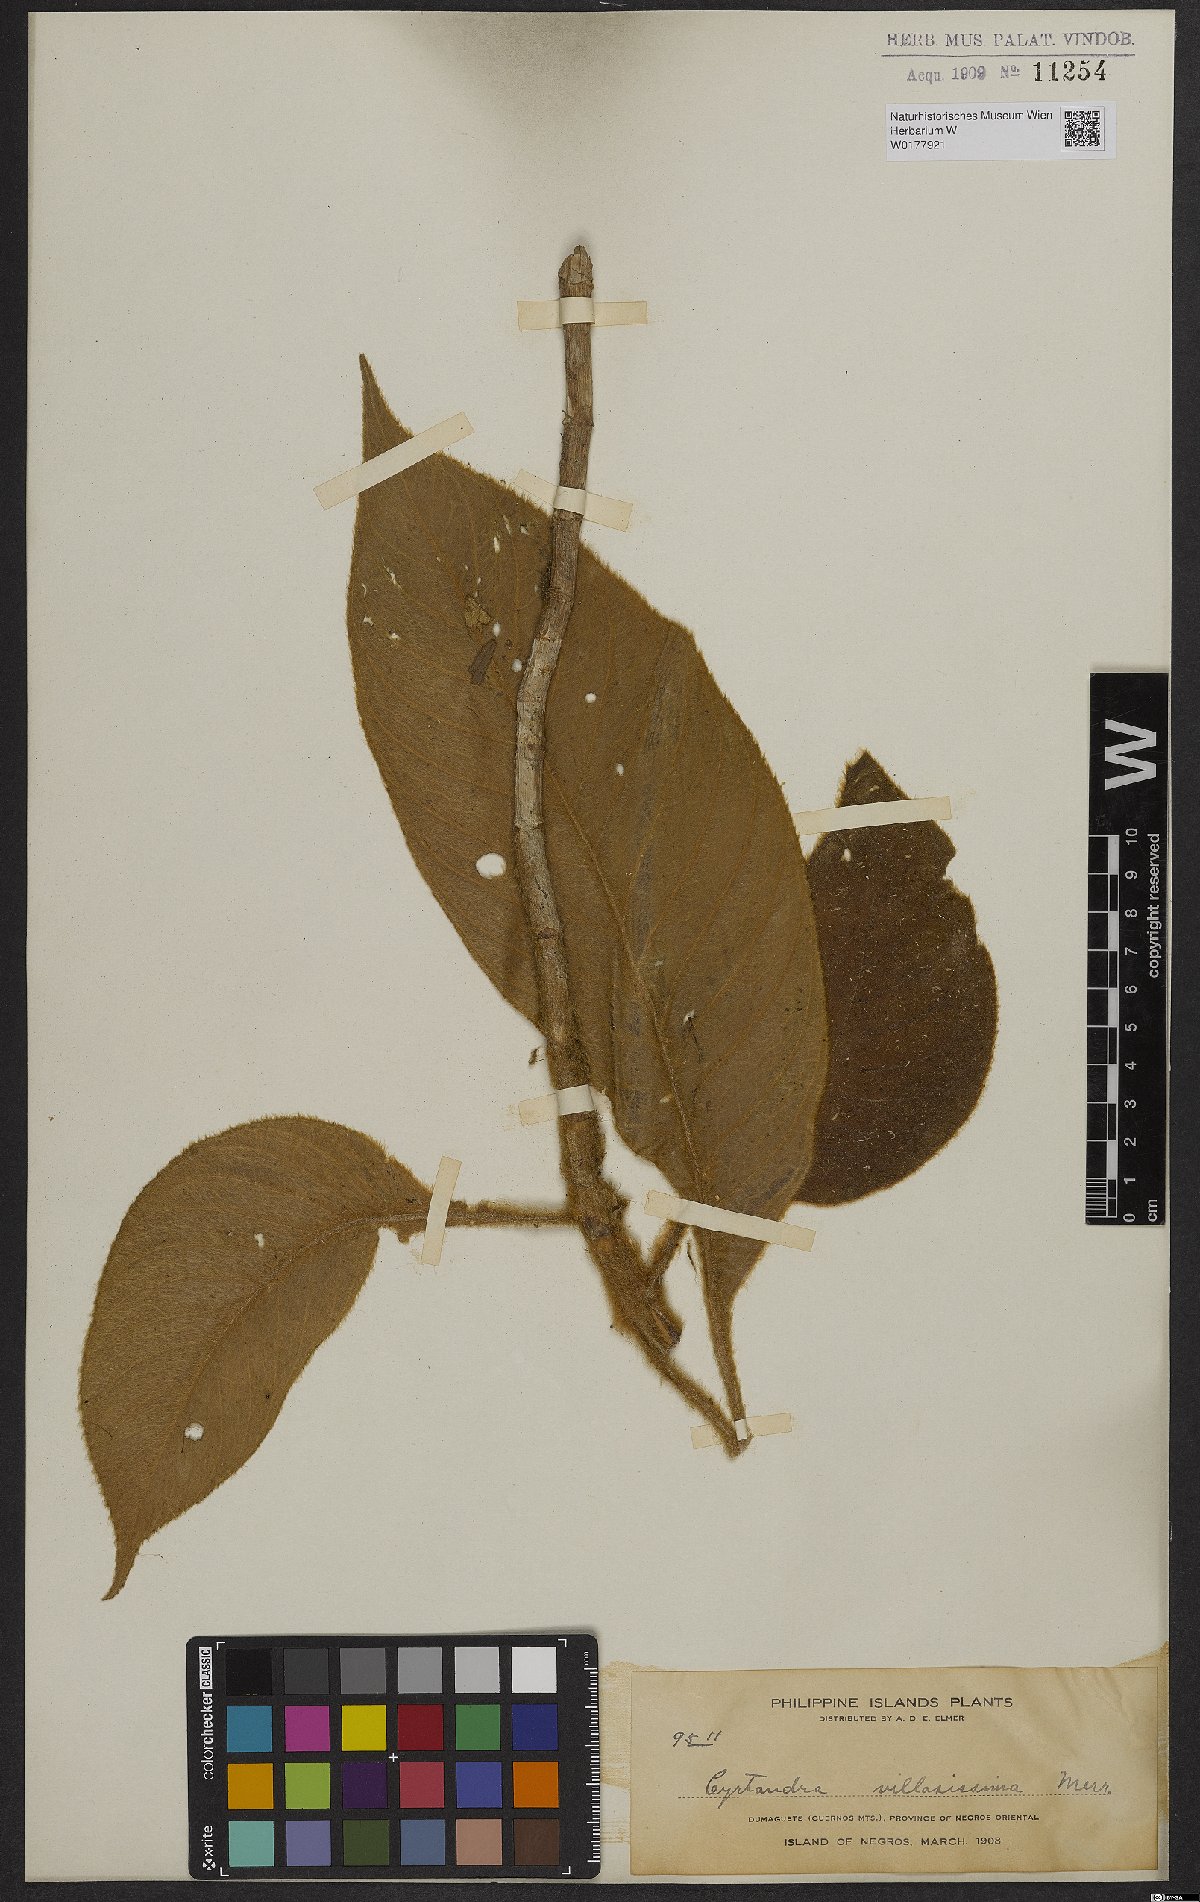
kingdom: Plantae
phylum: Tracheophyta
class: Magnoliopsida
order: Lamiales
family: Gesneriaceae
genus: Cyrtandra
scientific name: Cyrtandra
